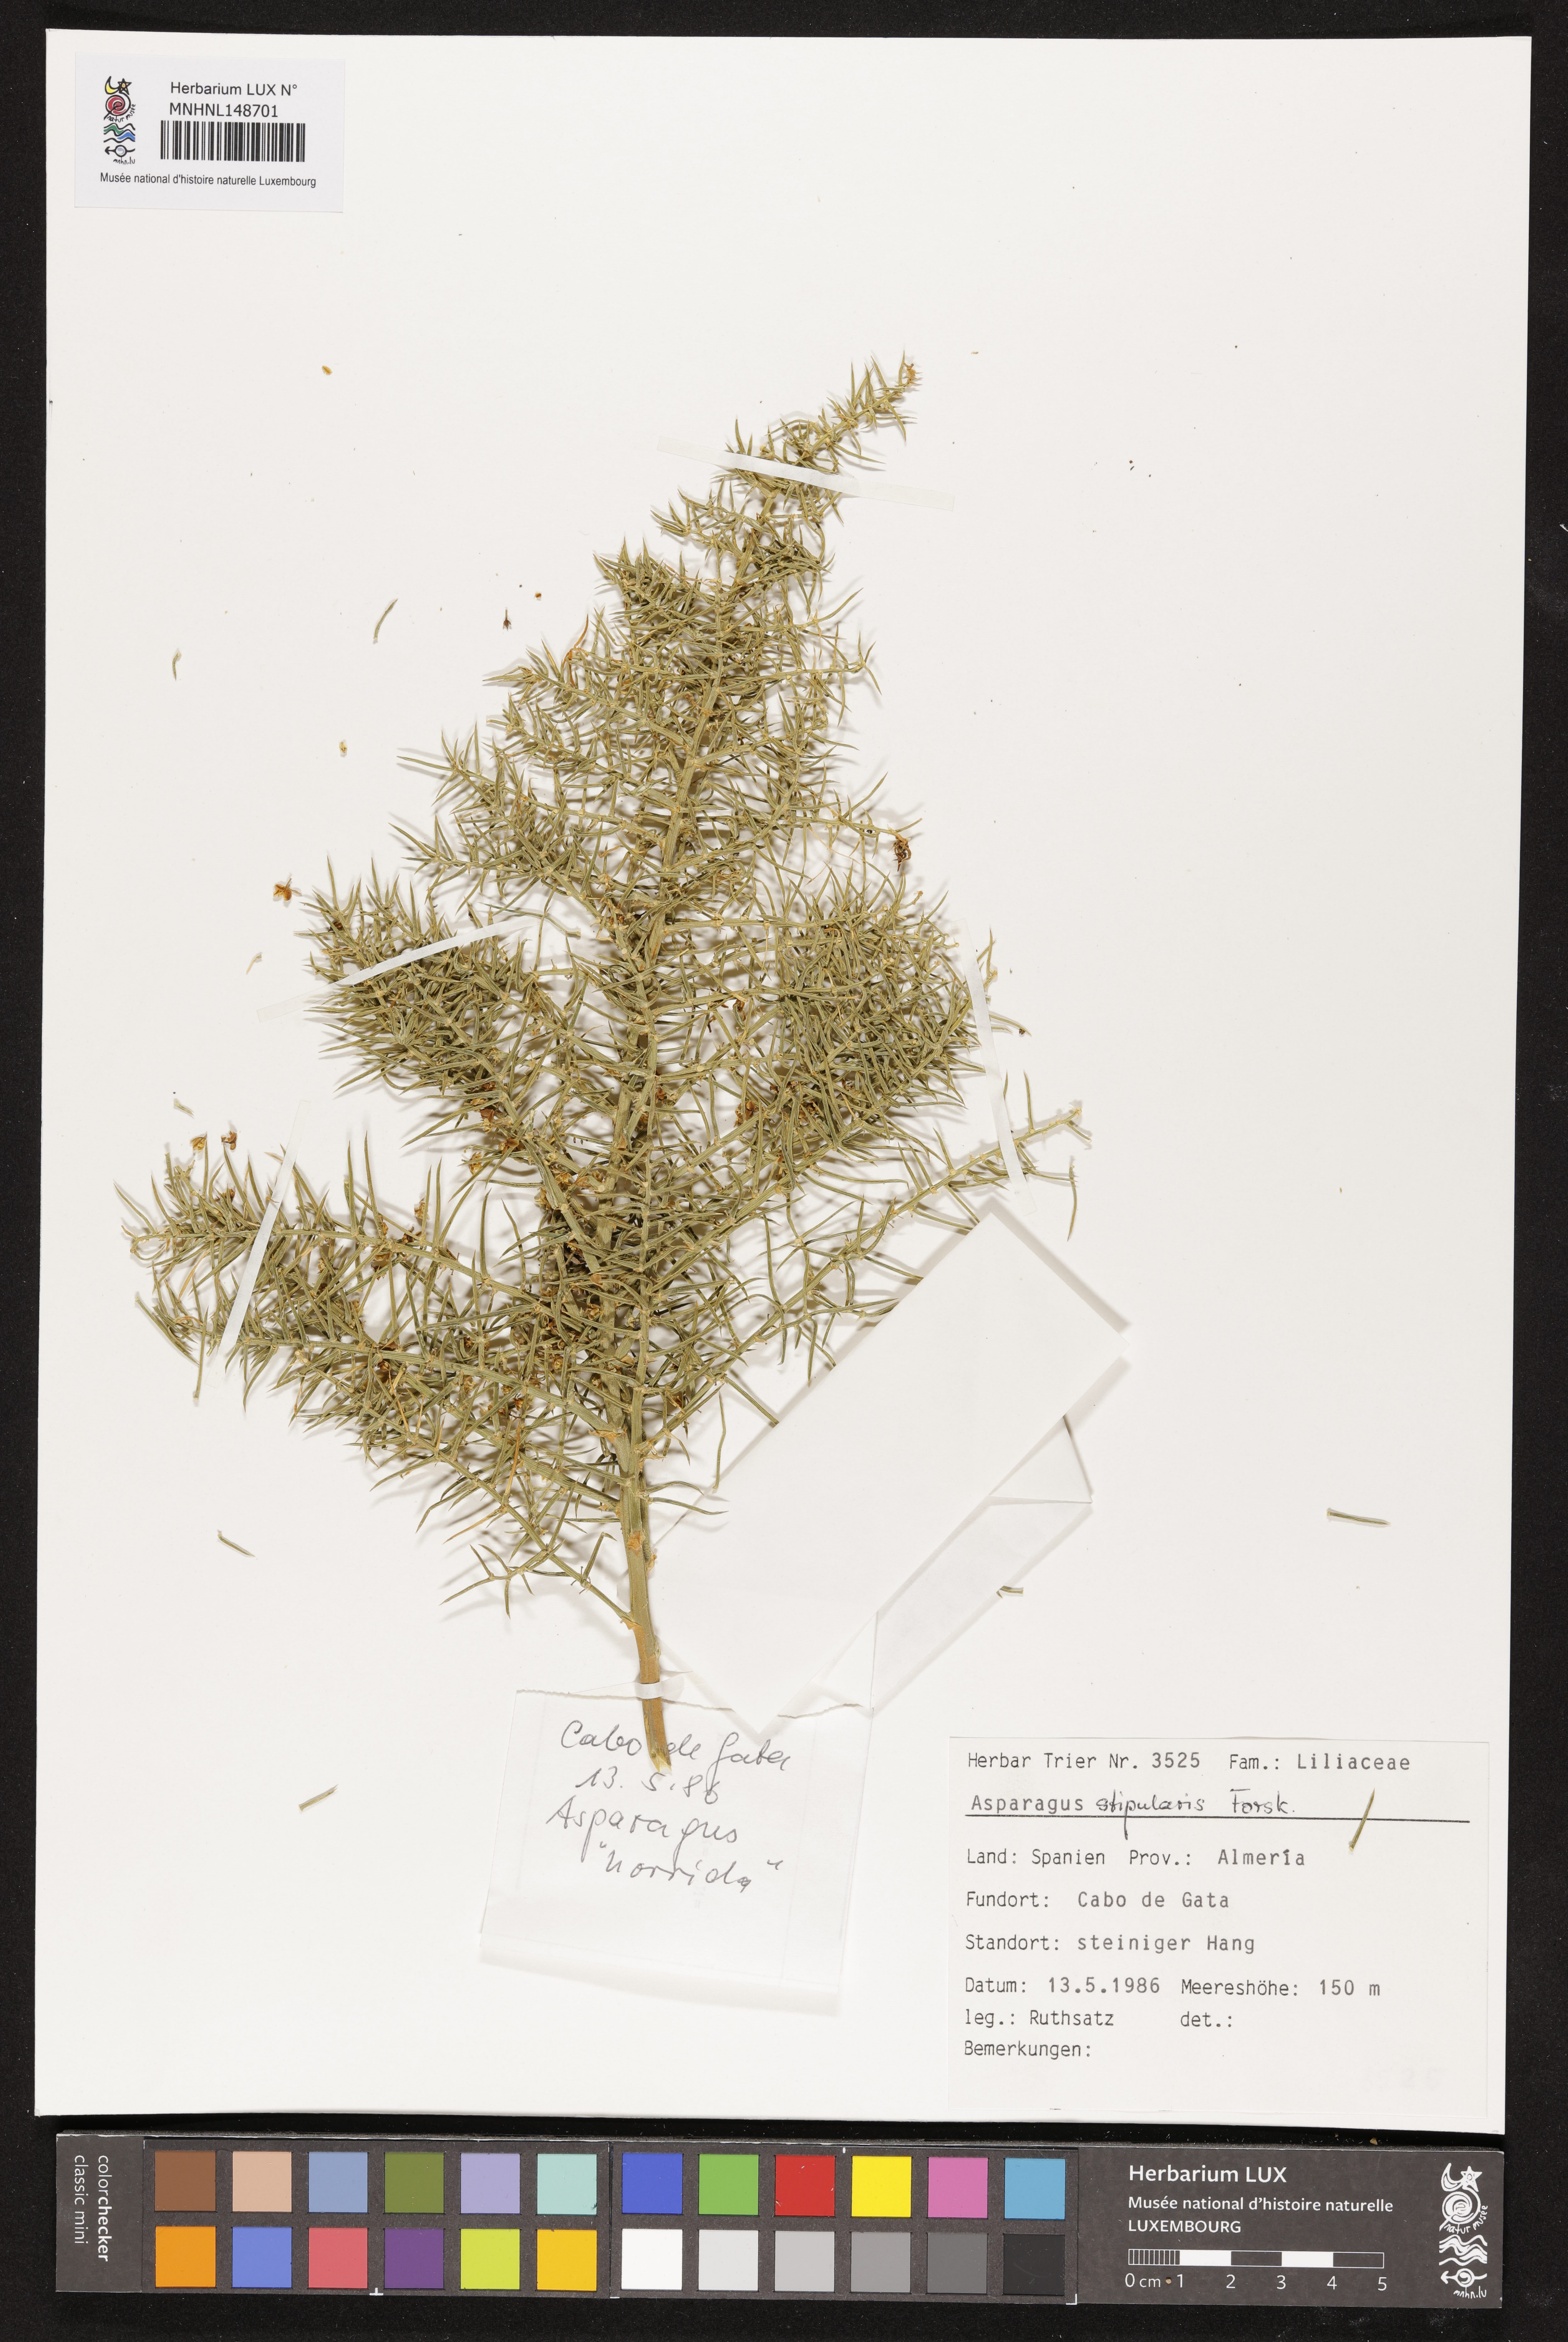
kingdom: Plantae
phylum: Tracheophyta
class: Liliopsida
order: Asparagales
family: Asparagaceae
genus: Asparagus
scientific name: Asparagus horridus
